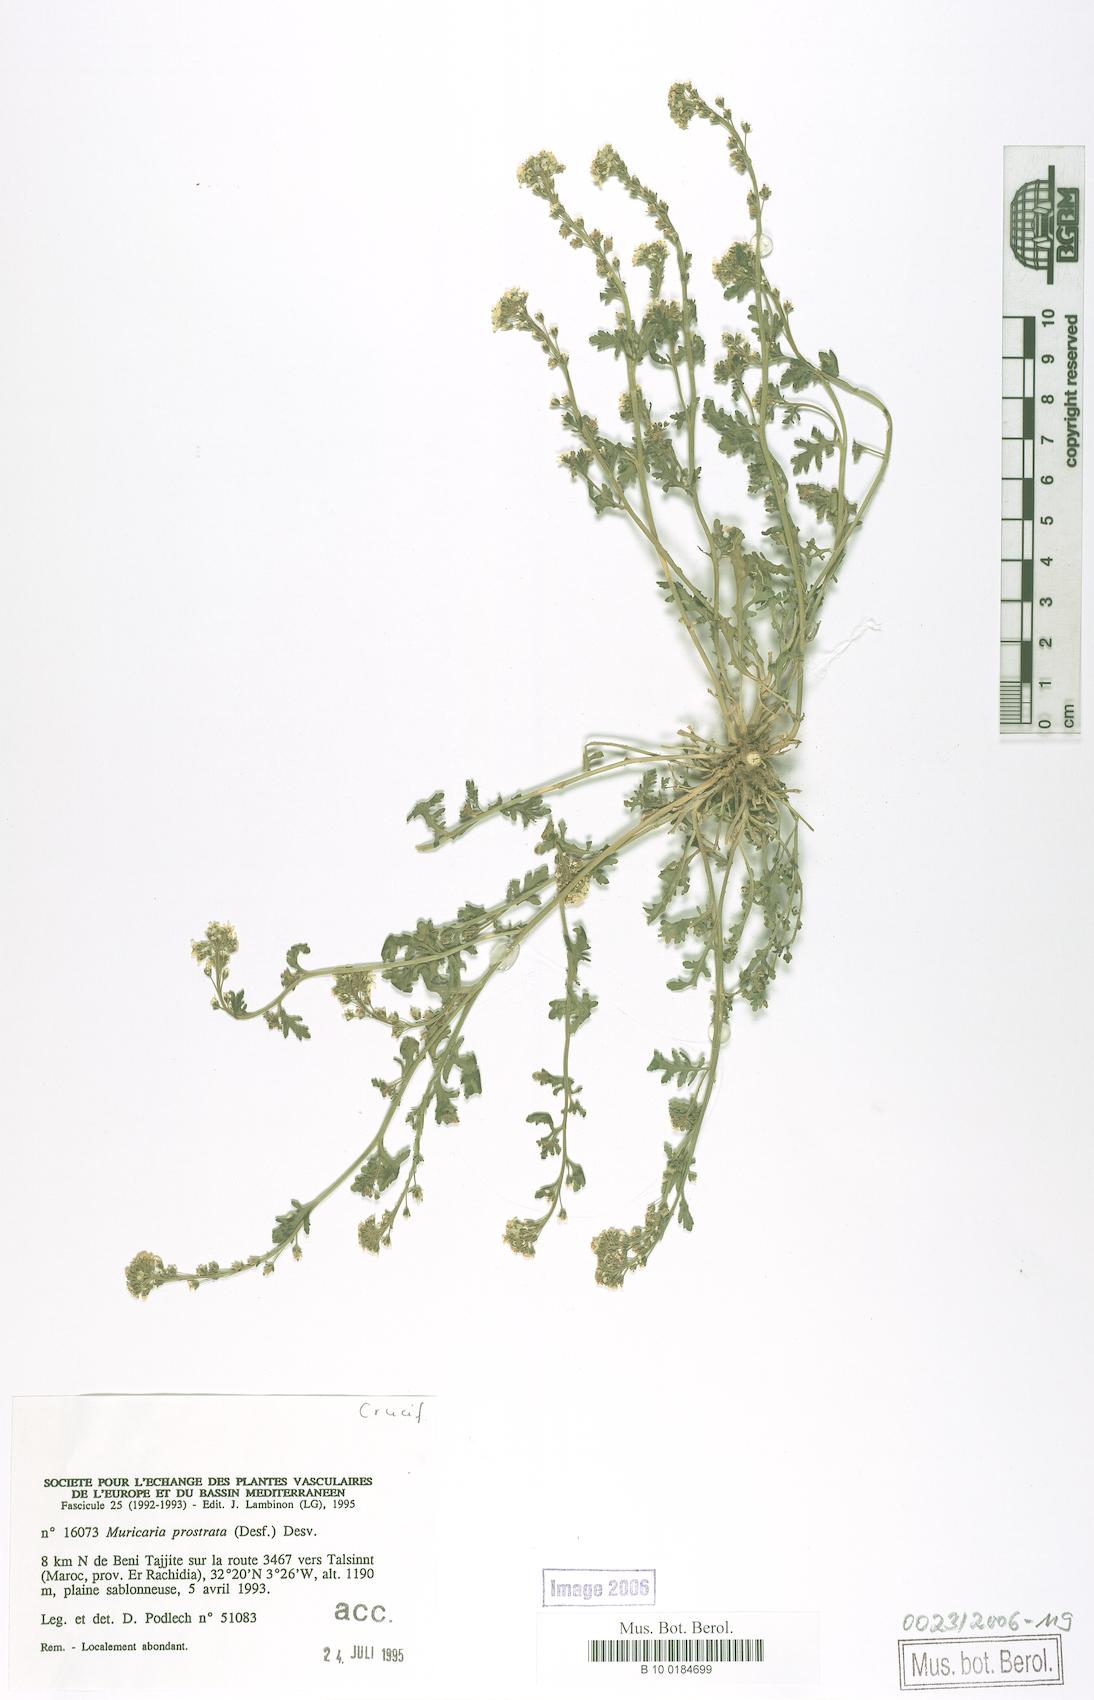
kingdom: Plantae
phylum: Tracheophyta
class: Magnoliopsida
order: Brassicales
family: Brassicaceae
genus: Muricaria
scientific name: Muricaria prostrata
